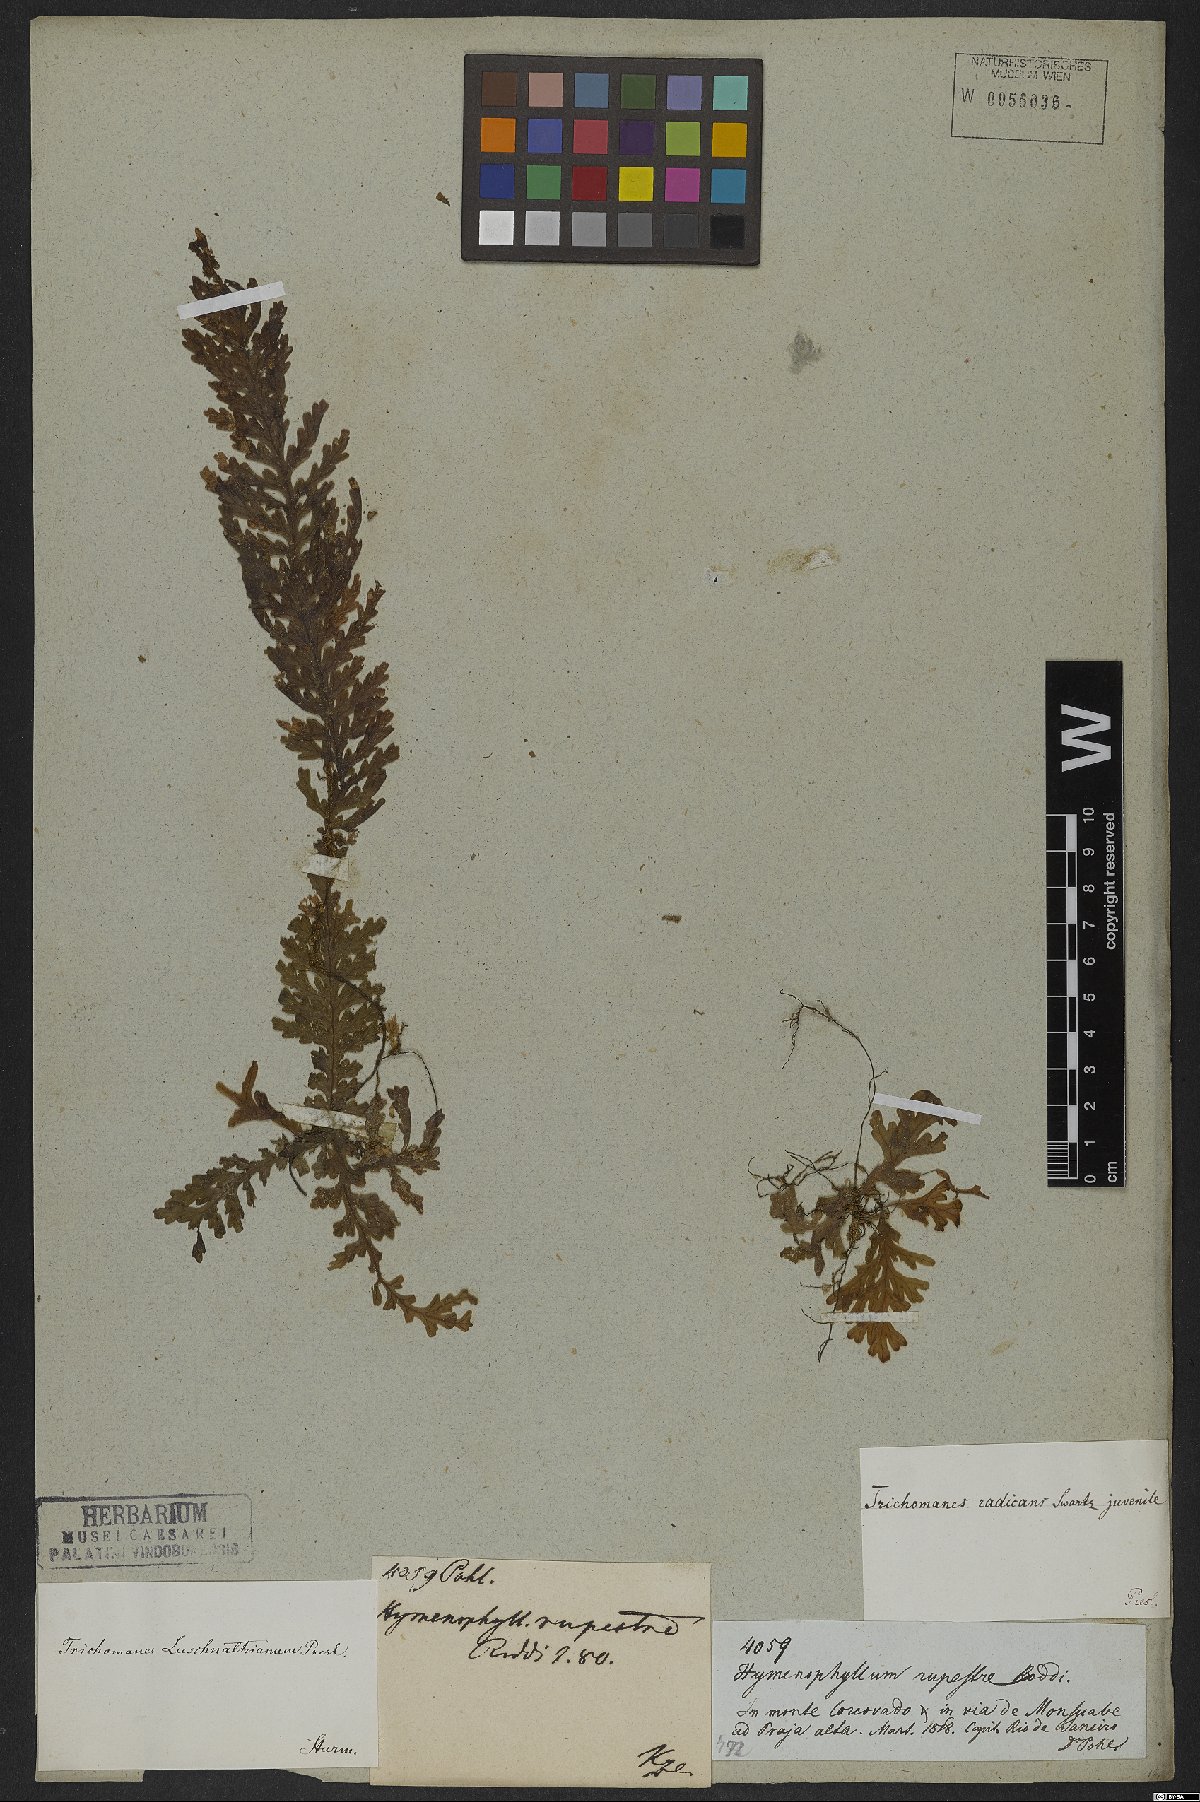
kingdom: Plantae
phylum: Tracheophyta
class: Polypodiopsida
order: Hymenophyllales
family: Hymenophyllaceae
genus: Vandenboschia
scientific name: Vandenboschia rupestris
